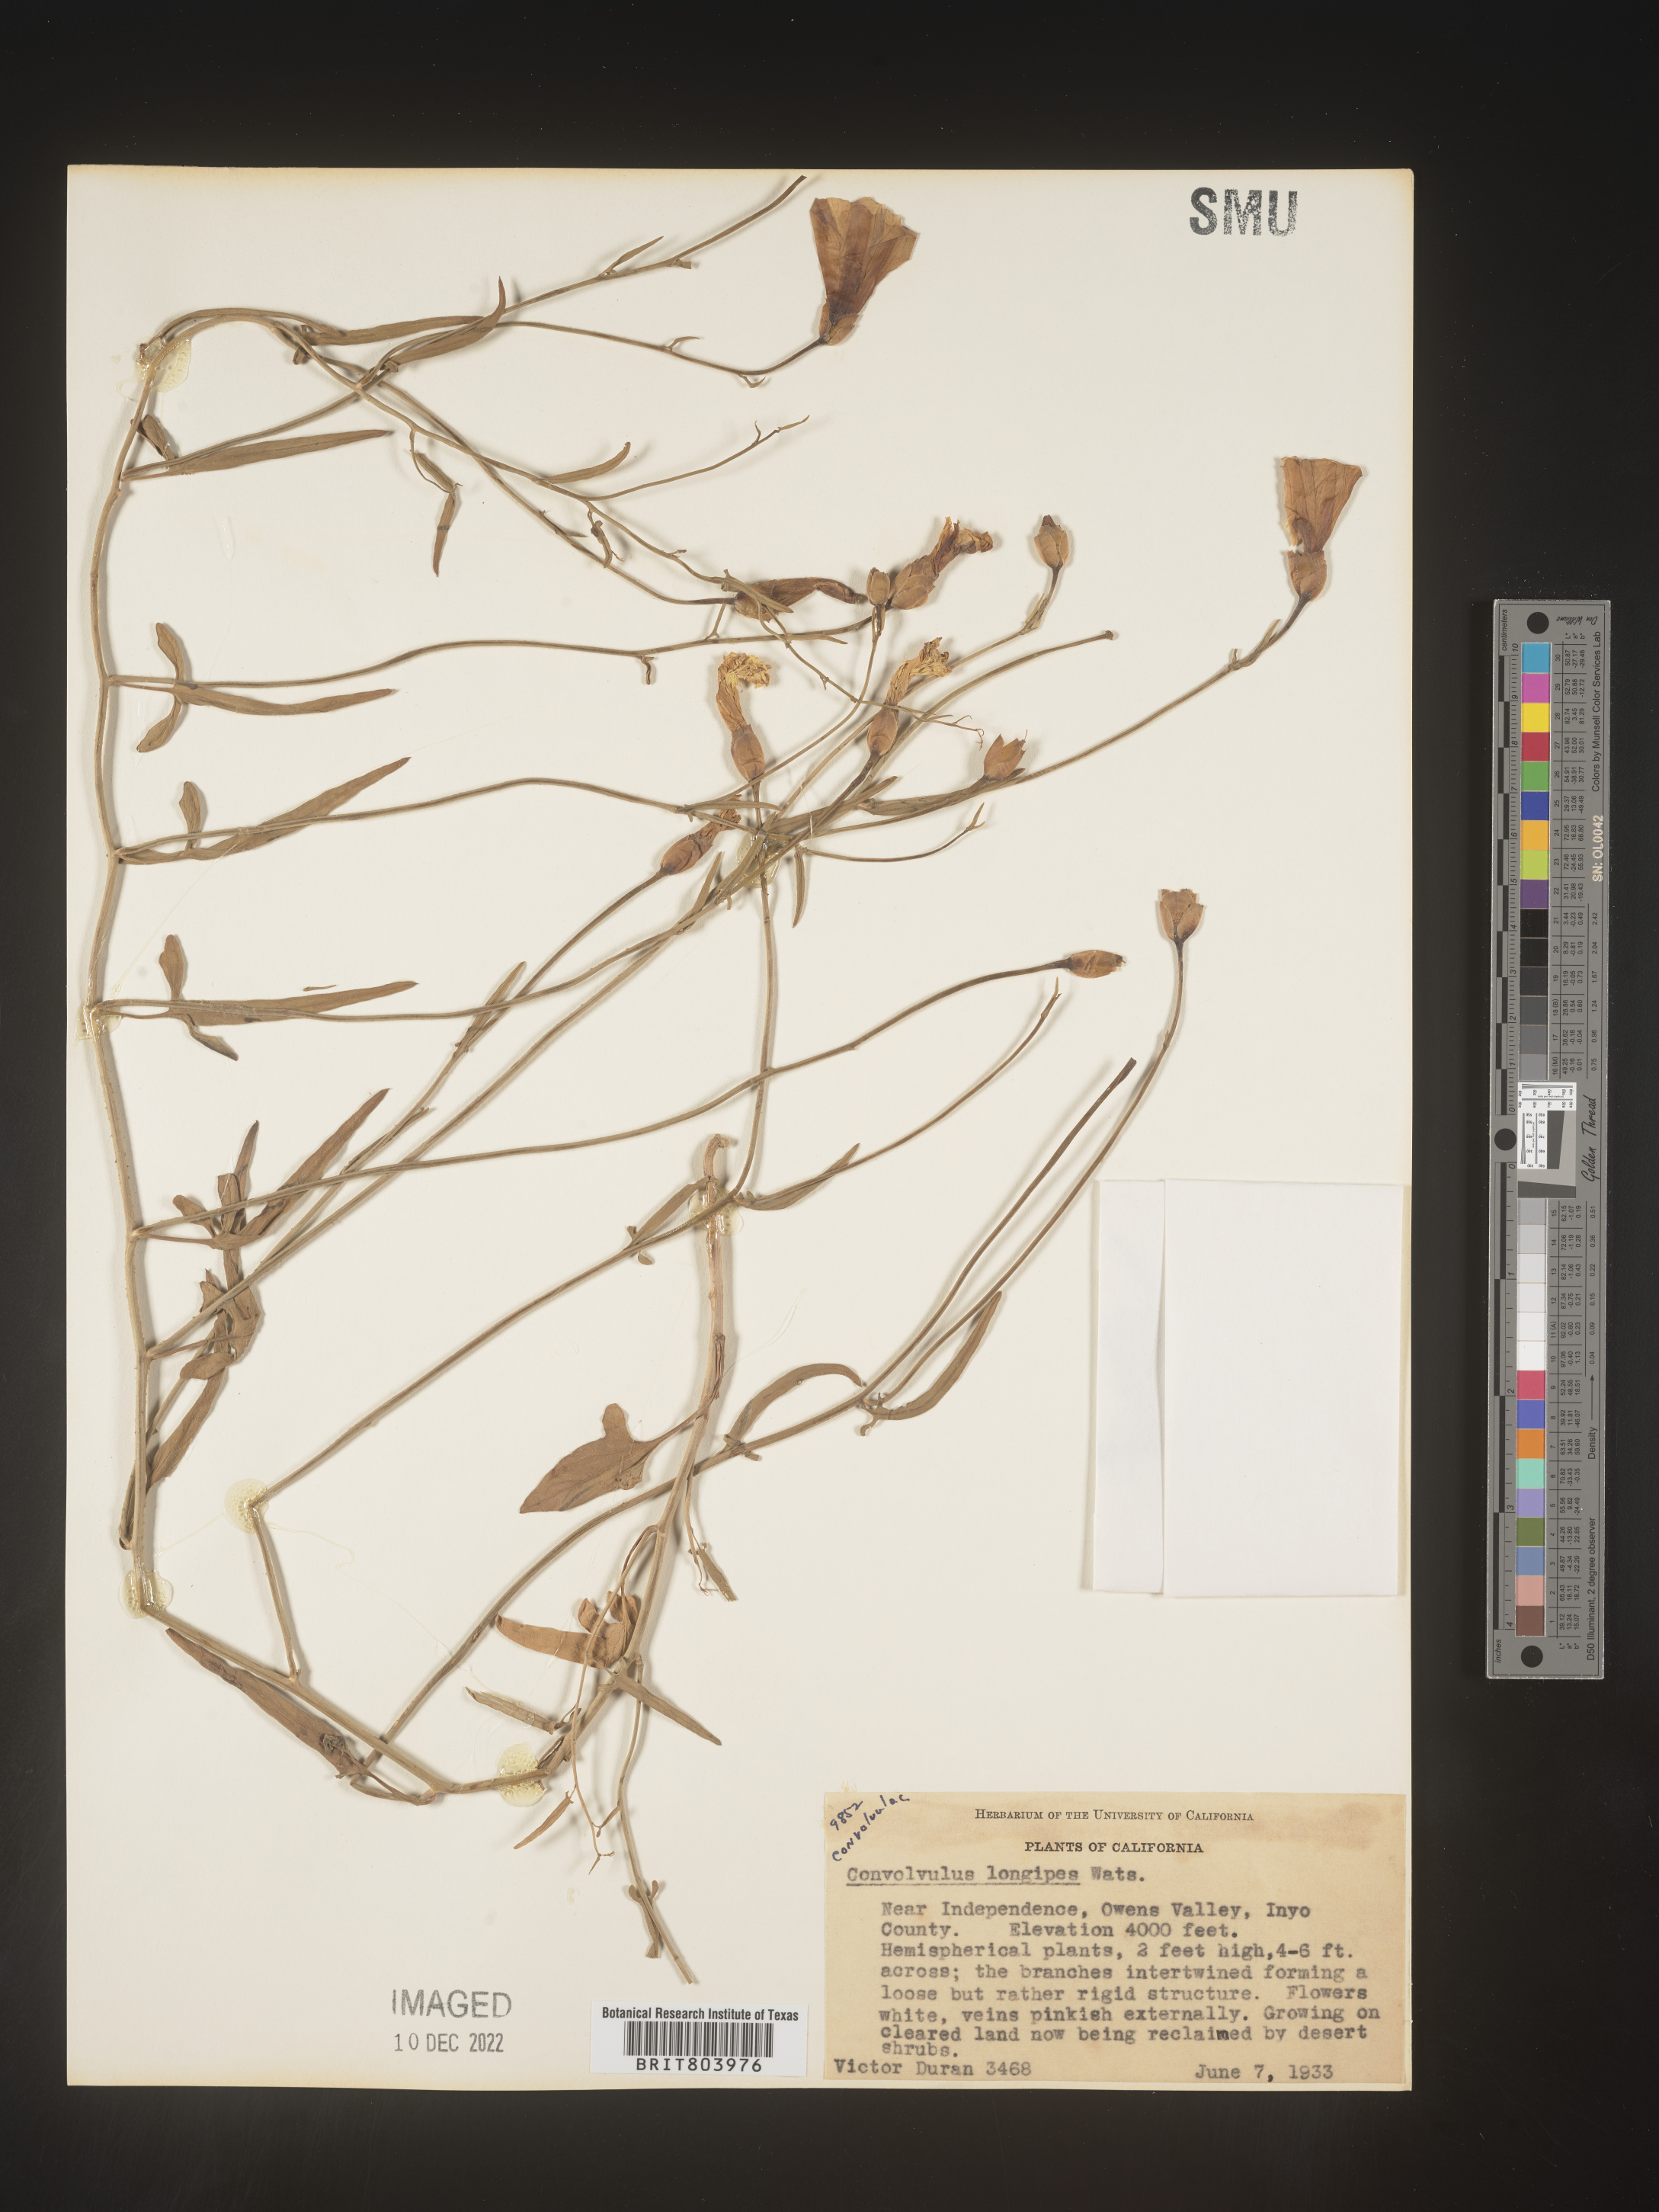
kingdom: Plantae
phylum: Tracheophyta
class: Magnoliopsida
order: Solanales
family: Convolvulaceae
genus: Calystegia
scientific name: Calystegia
